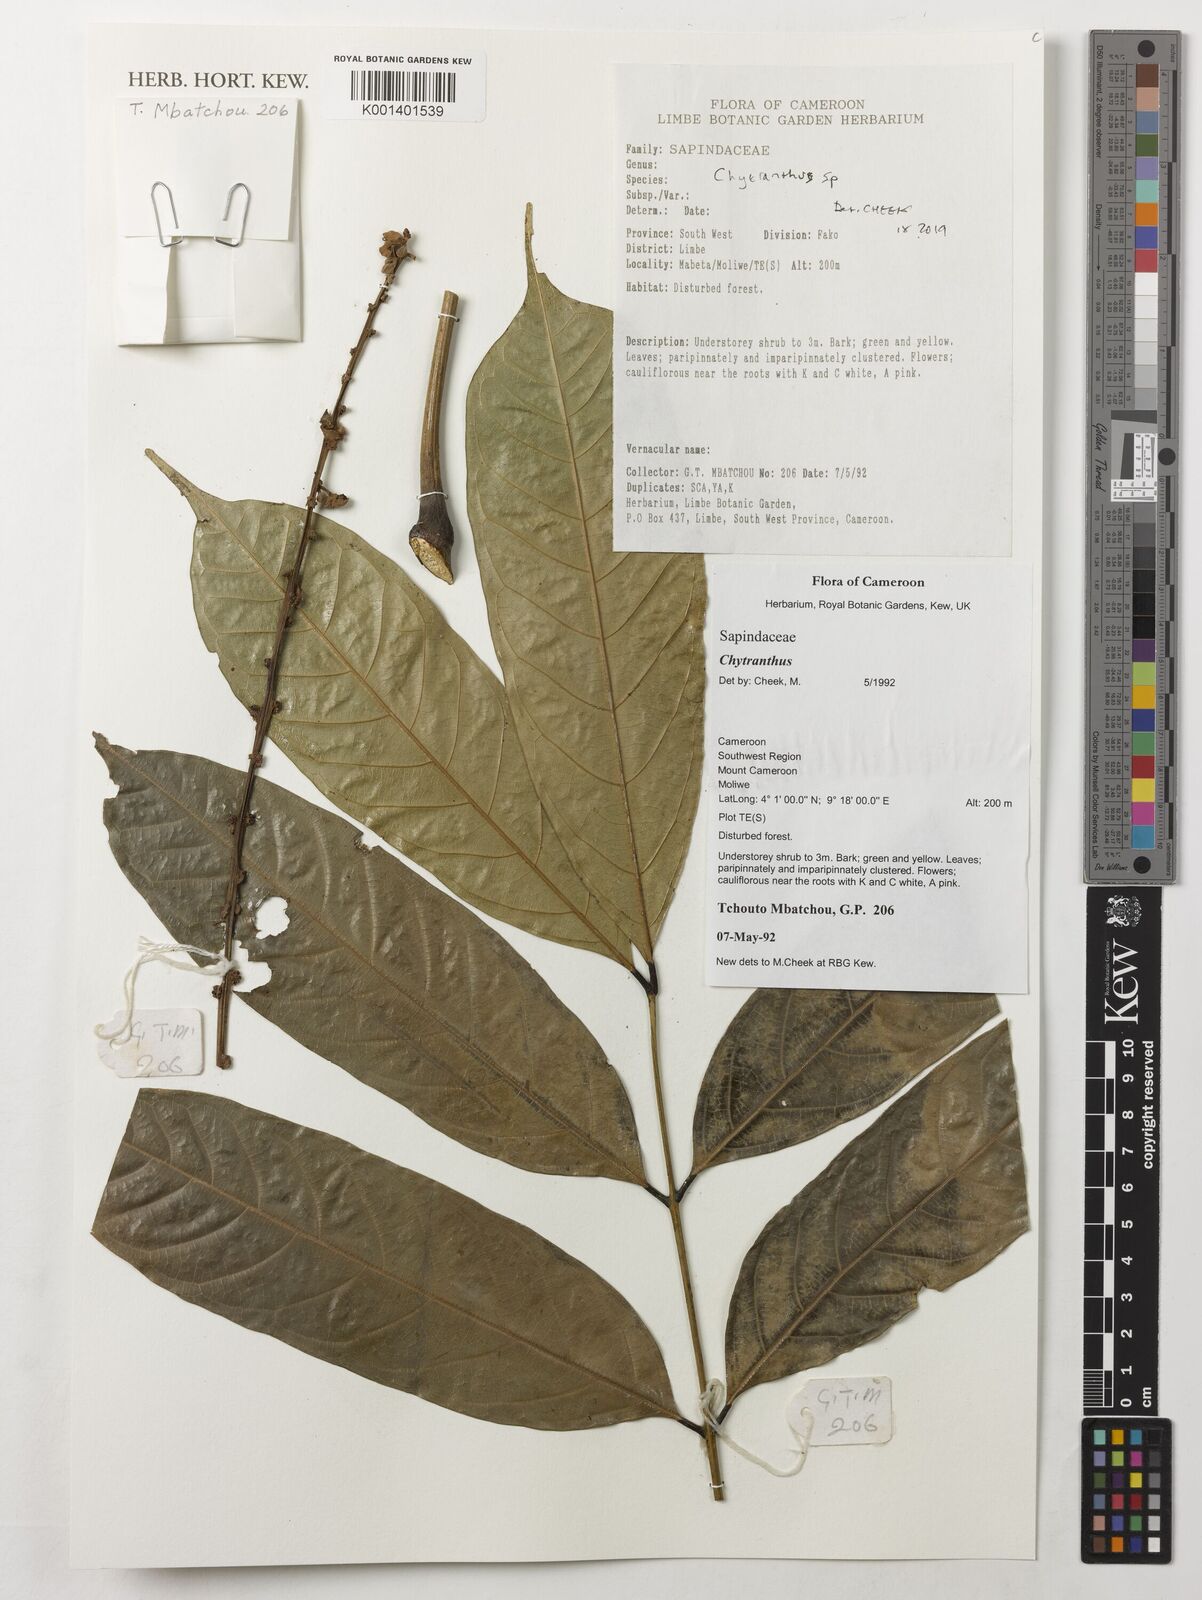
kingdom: Plantae
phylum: Tracheophyta
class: Magnoliopsida
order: Sapindales
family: Sapindaceae
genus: Chytranthus
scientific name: Chytranthus
